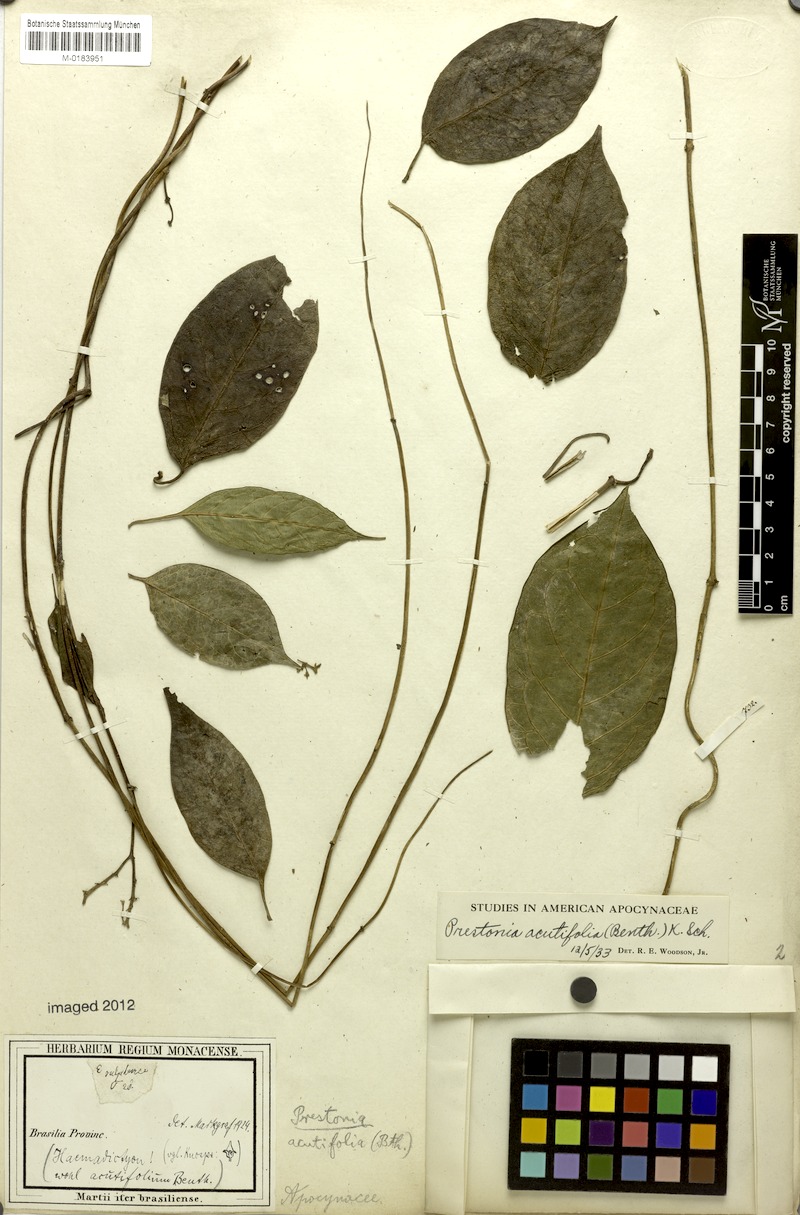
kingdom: Plantae
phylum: Tracheophyta
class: Magnoliopsida
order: Gentianales
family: Apocynaceae
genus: Prestonia
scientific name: Prestonia quinquangularis
